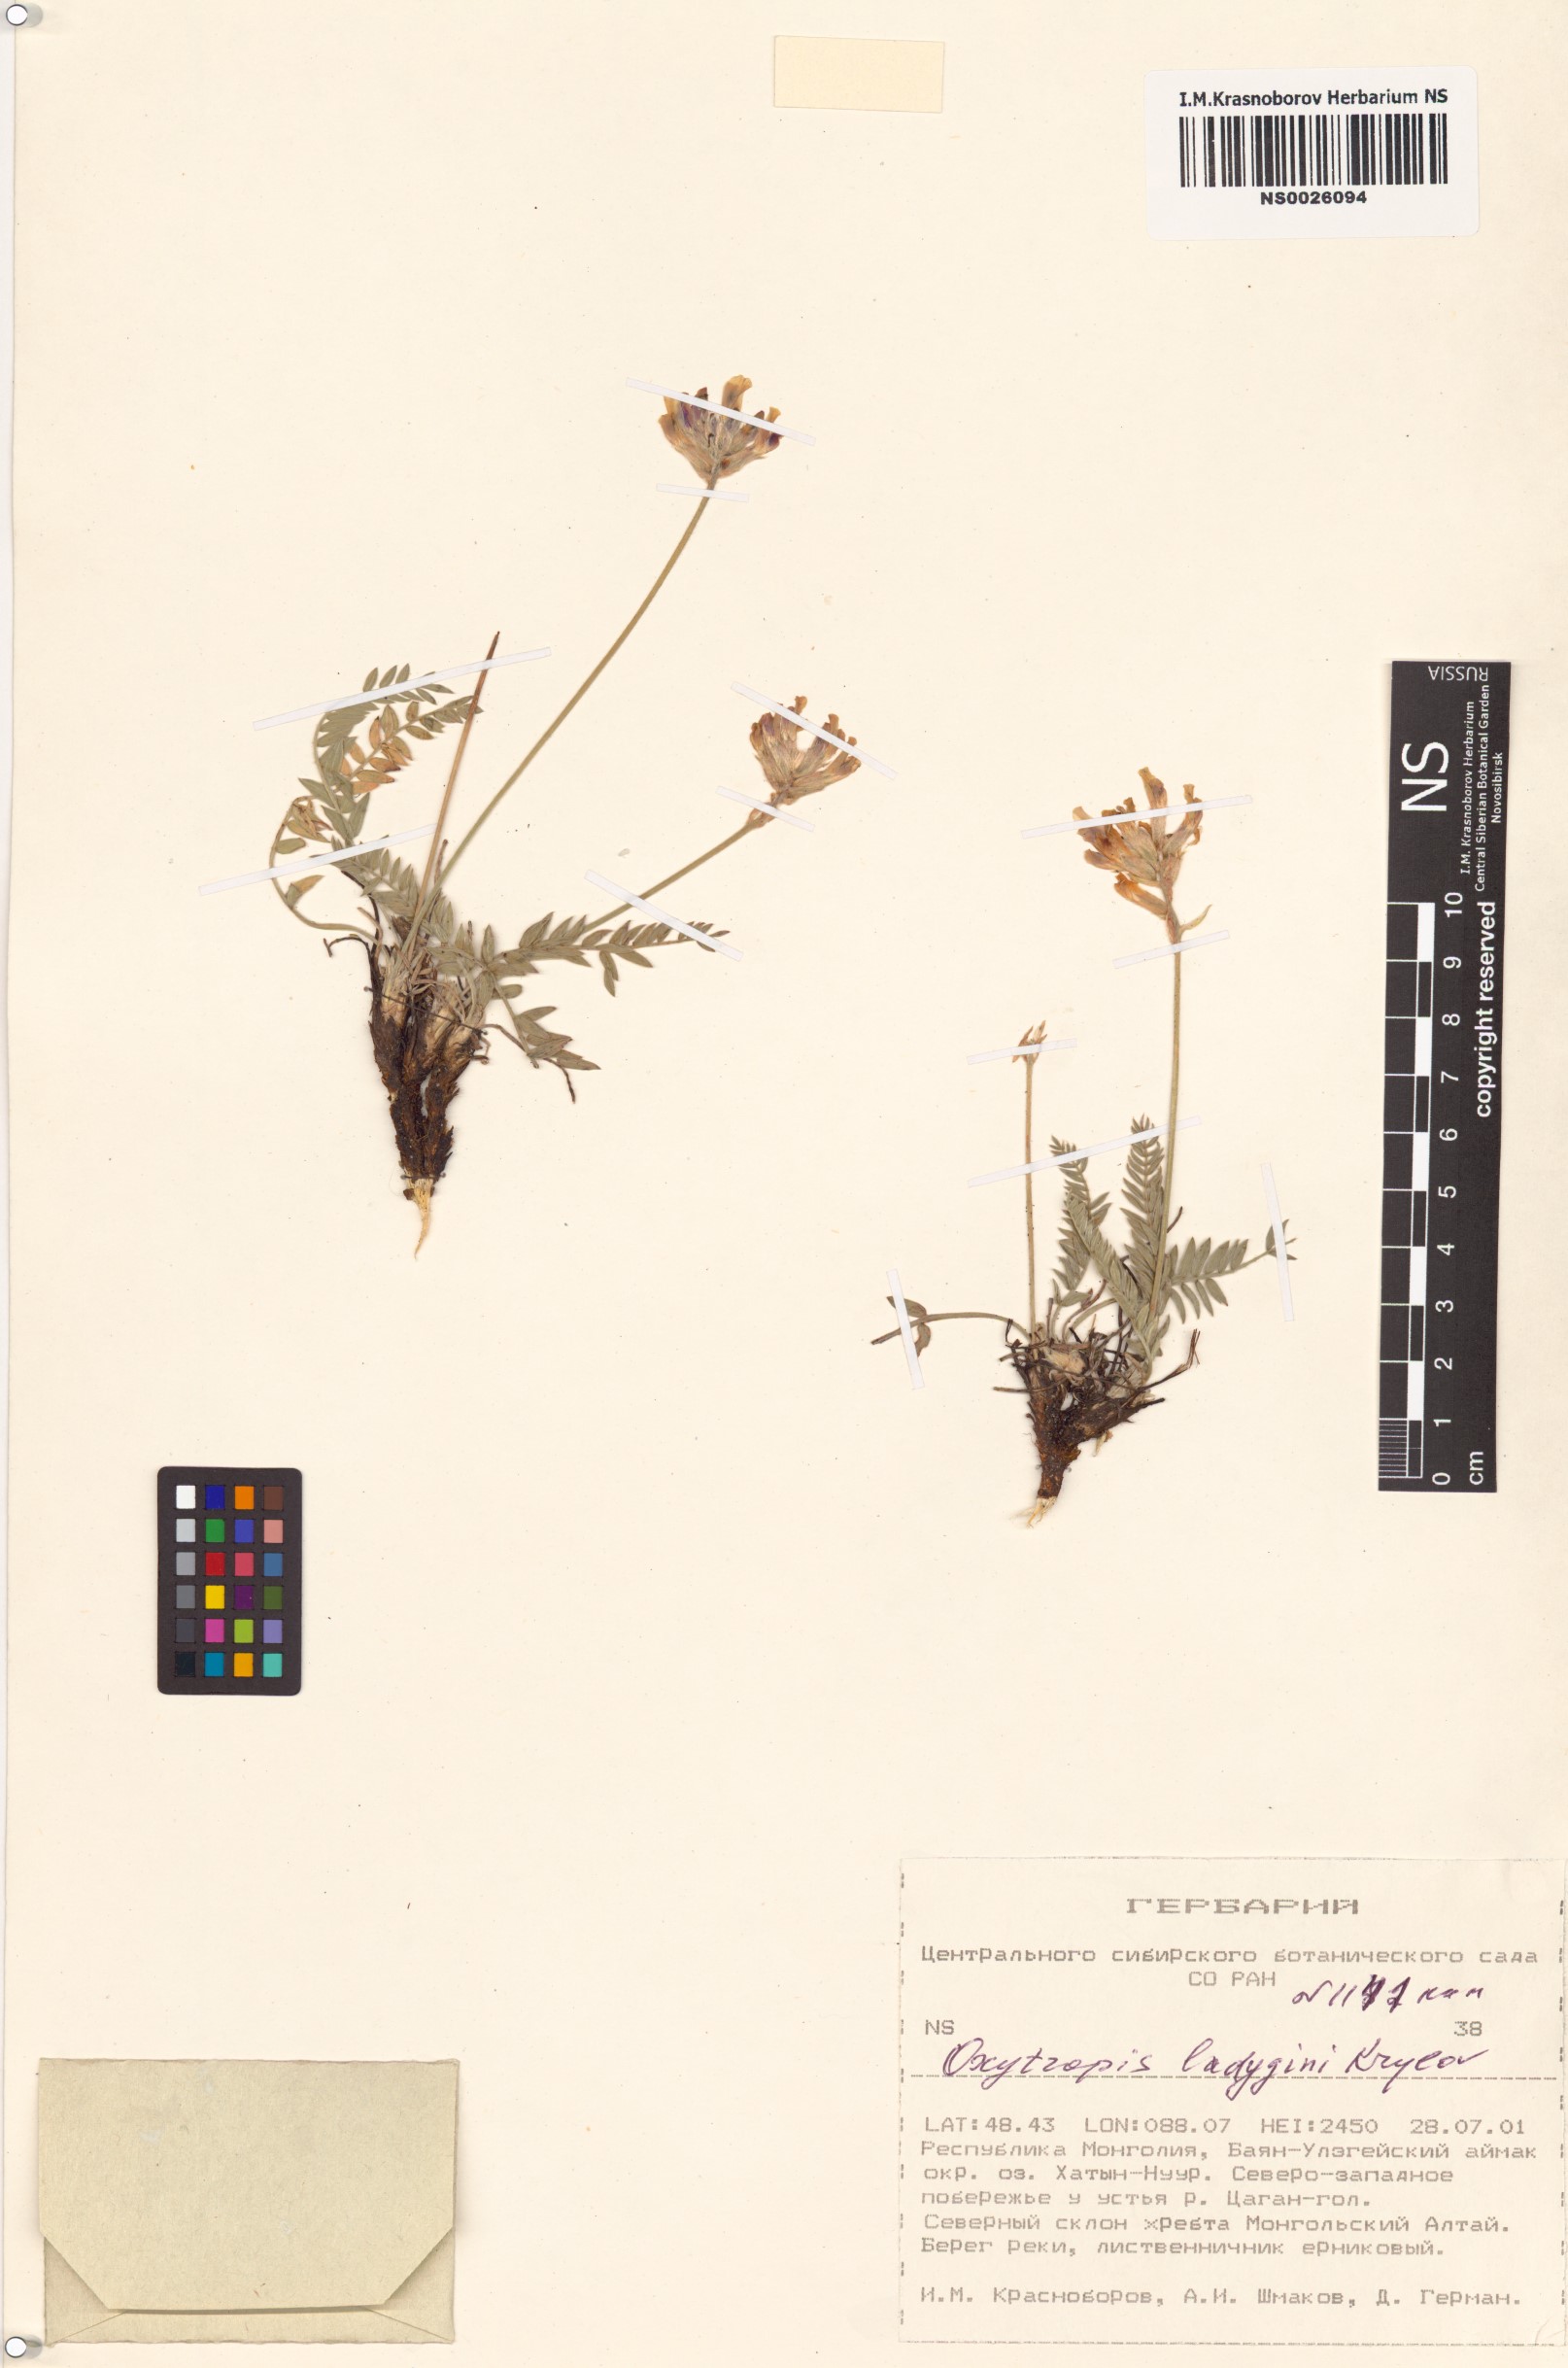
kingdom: Plantae
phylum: Tracheophyta
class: Magnoliopsida
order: Fabales
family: Fabaceae
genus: Oxytropis
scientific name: Oxytropis ladyginii
